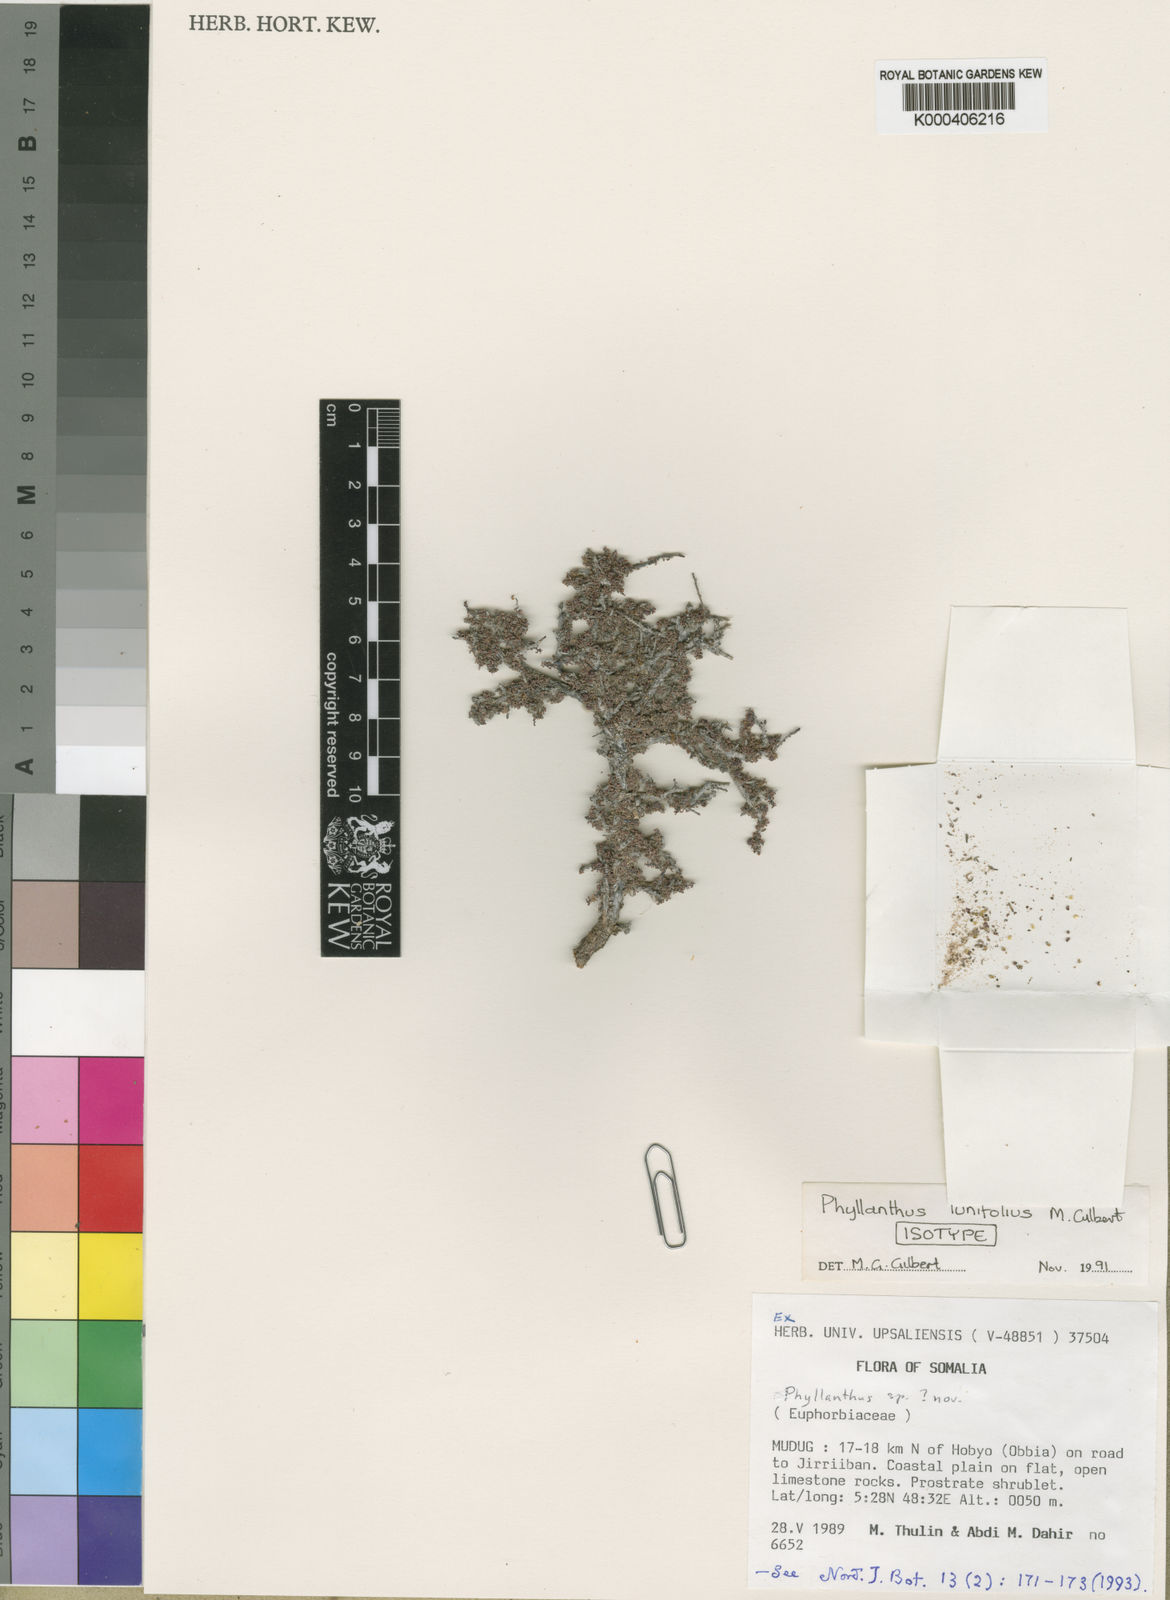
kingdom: Plantae
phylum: Tracheophyta
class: Magnoliopsida
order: Malpighiales
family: Phyllanthaceae
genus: Phyllanthus
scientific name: Phyllanthus lunifolius
